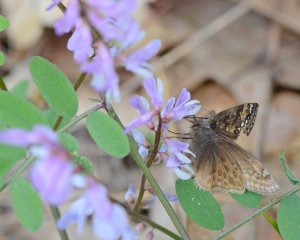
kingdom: Animalia
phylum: Arthropoda
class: Insecta
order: Lepidoptera
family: Hesperiidae
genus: Gesta
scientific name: Gesta
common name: Horace's Duskywing
